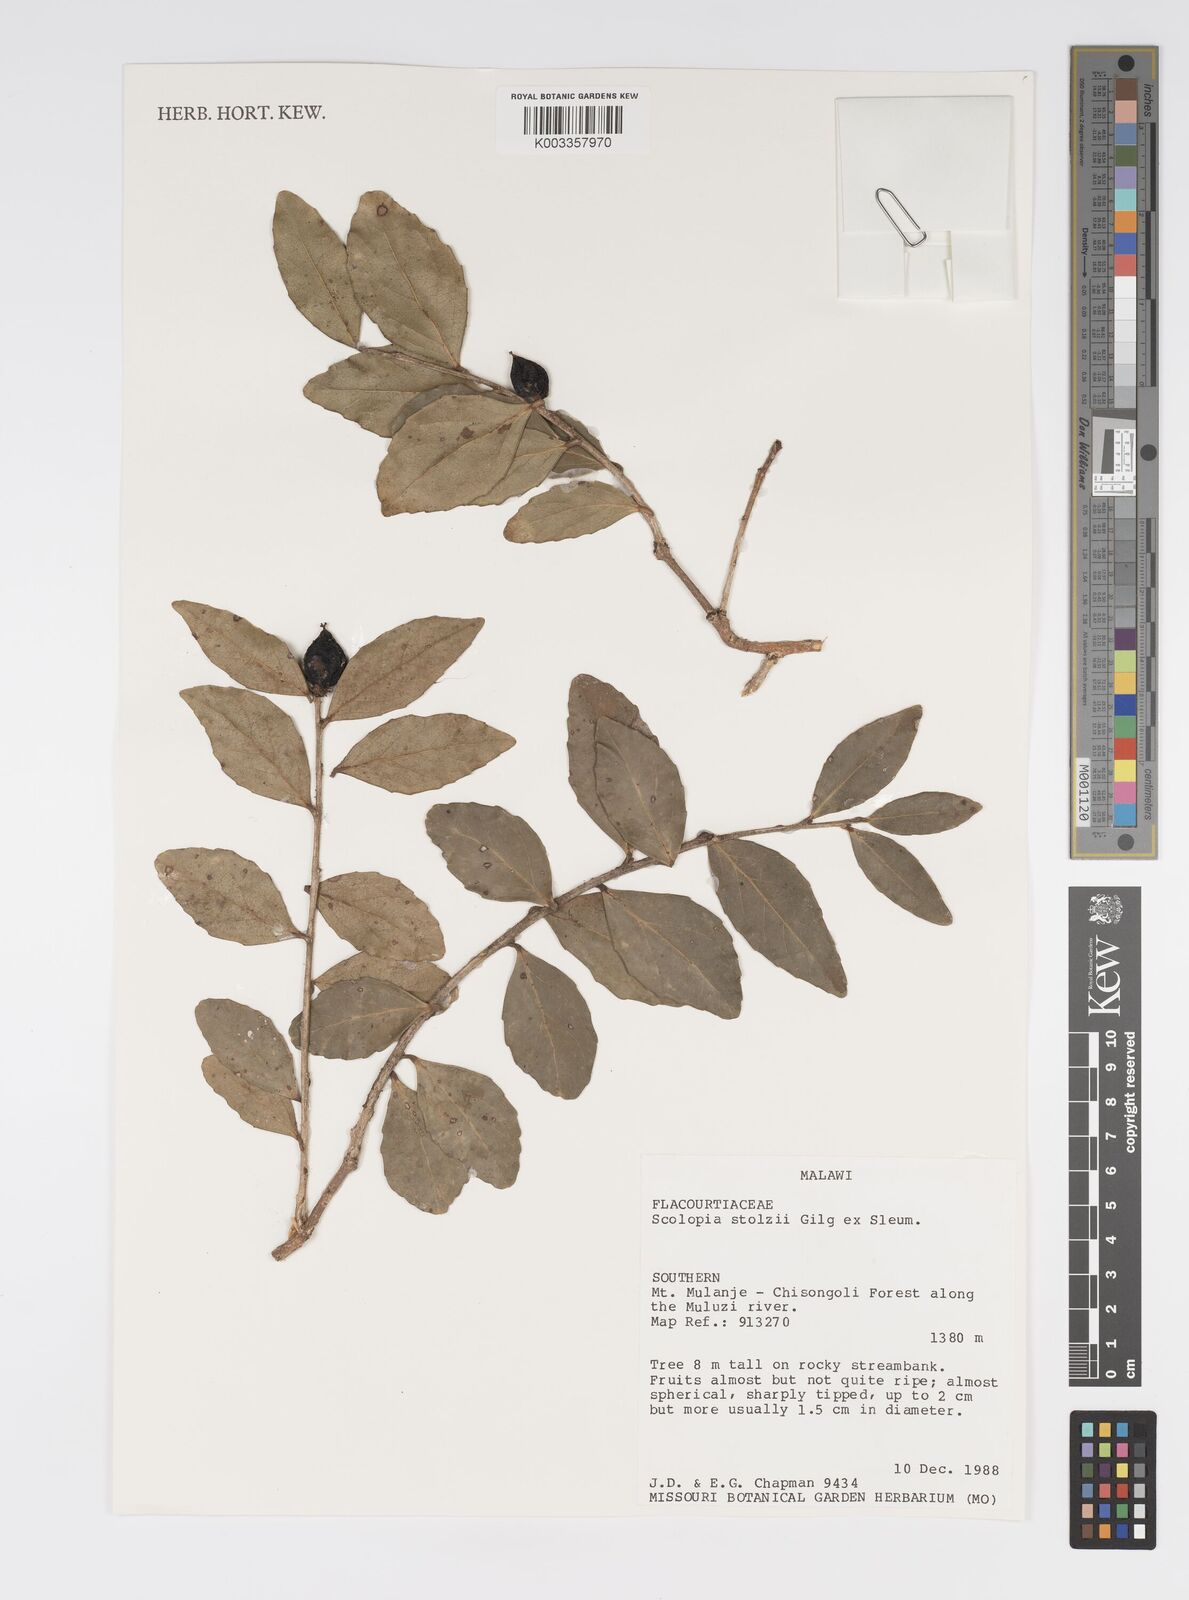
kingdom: Plantae
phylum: Tracheophyta
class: Magnoliopsida
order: Malpighiales
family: Salicaceae
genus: Scolopia
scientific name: Scolopia stolzii
